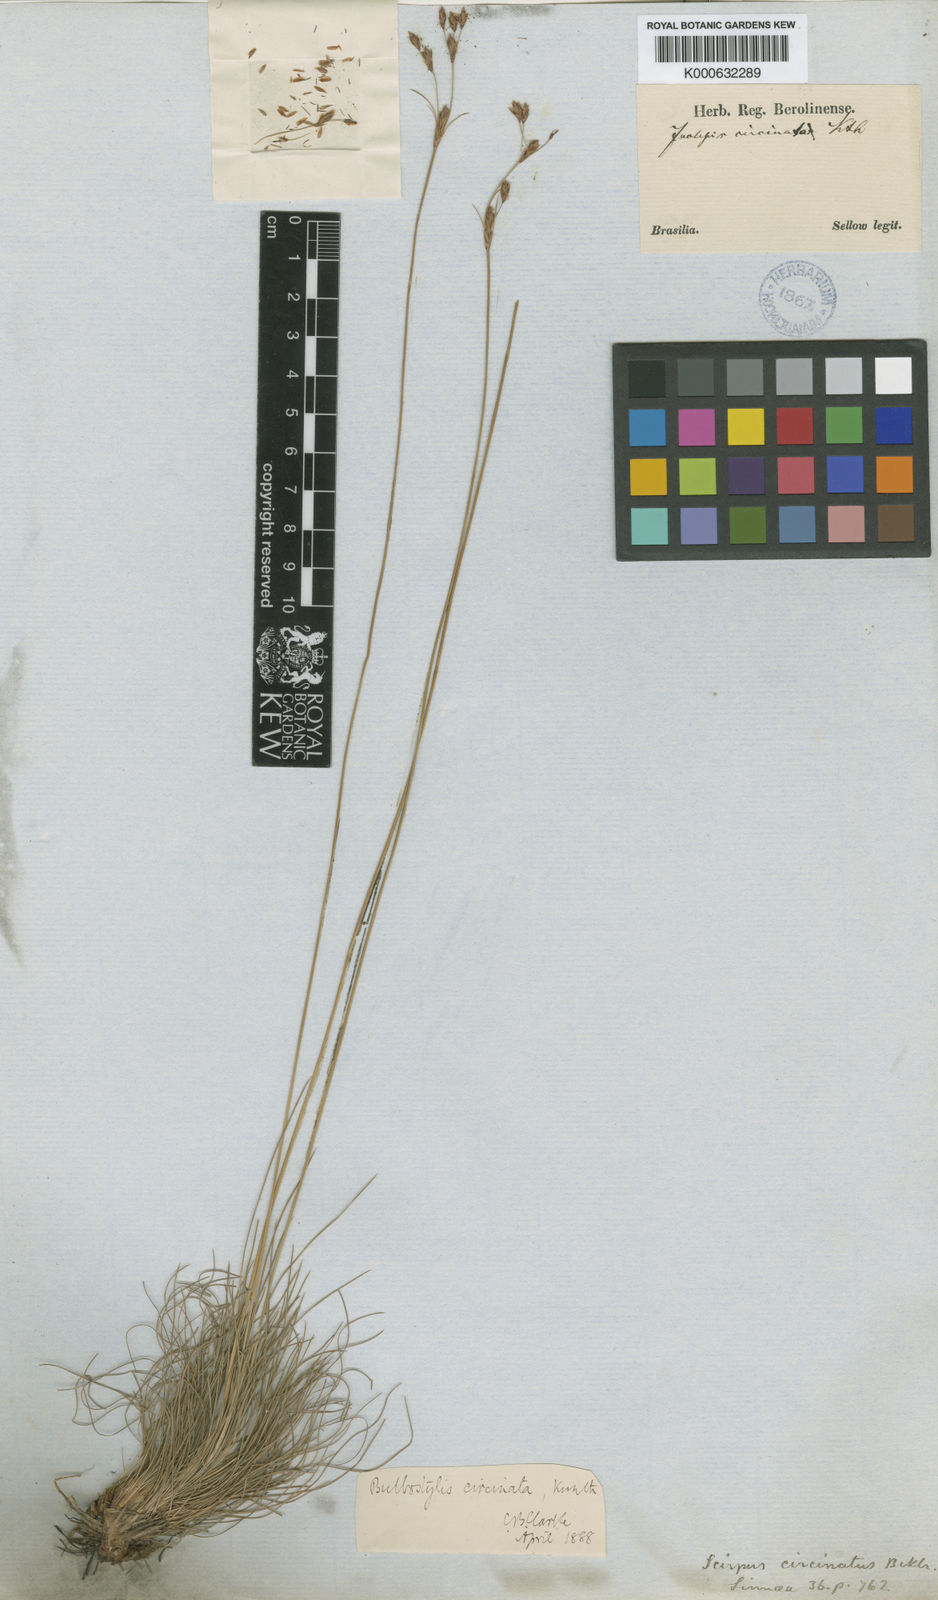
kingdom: Plantae
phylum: Tracheophyta
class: Liliopsida
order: Poales
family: Cyperaceae
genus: Bulbostylis
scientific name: Bulbostylis circinata
